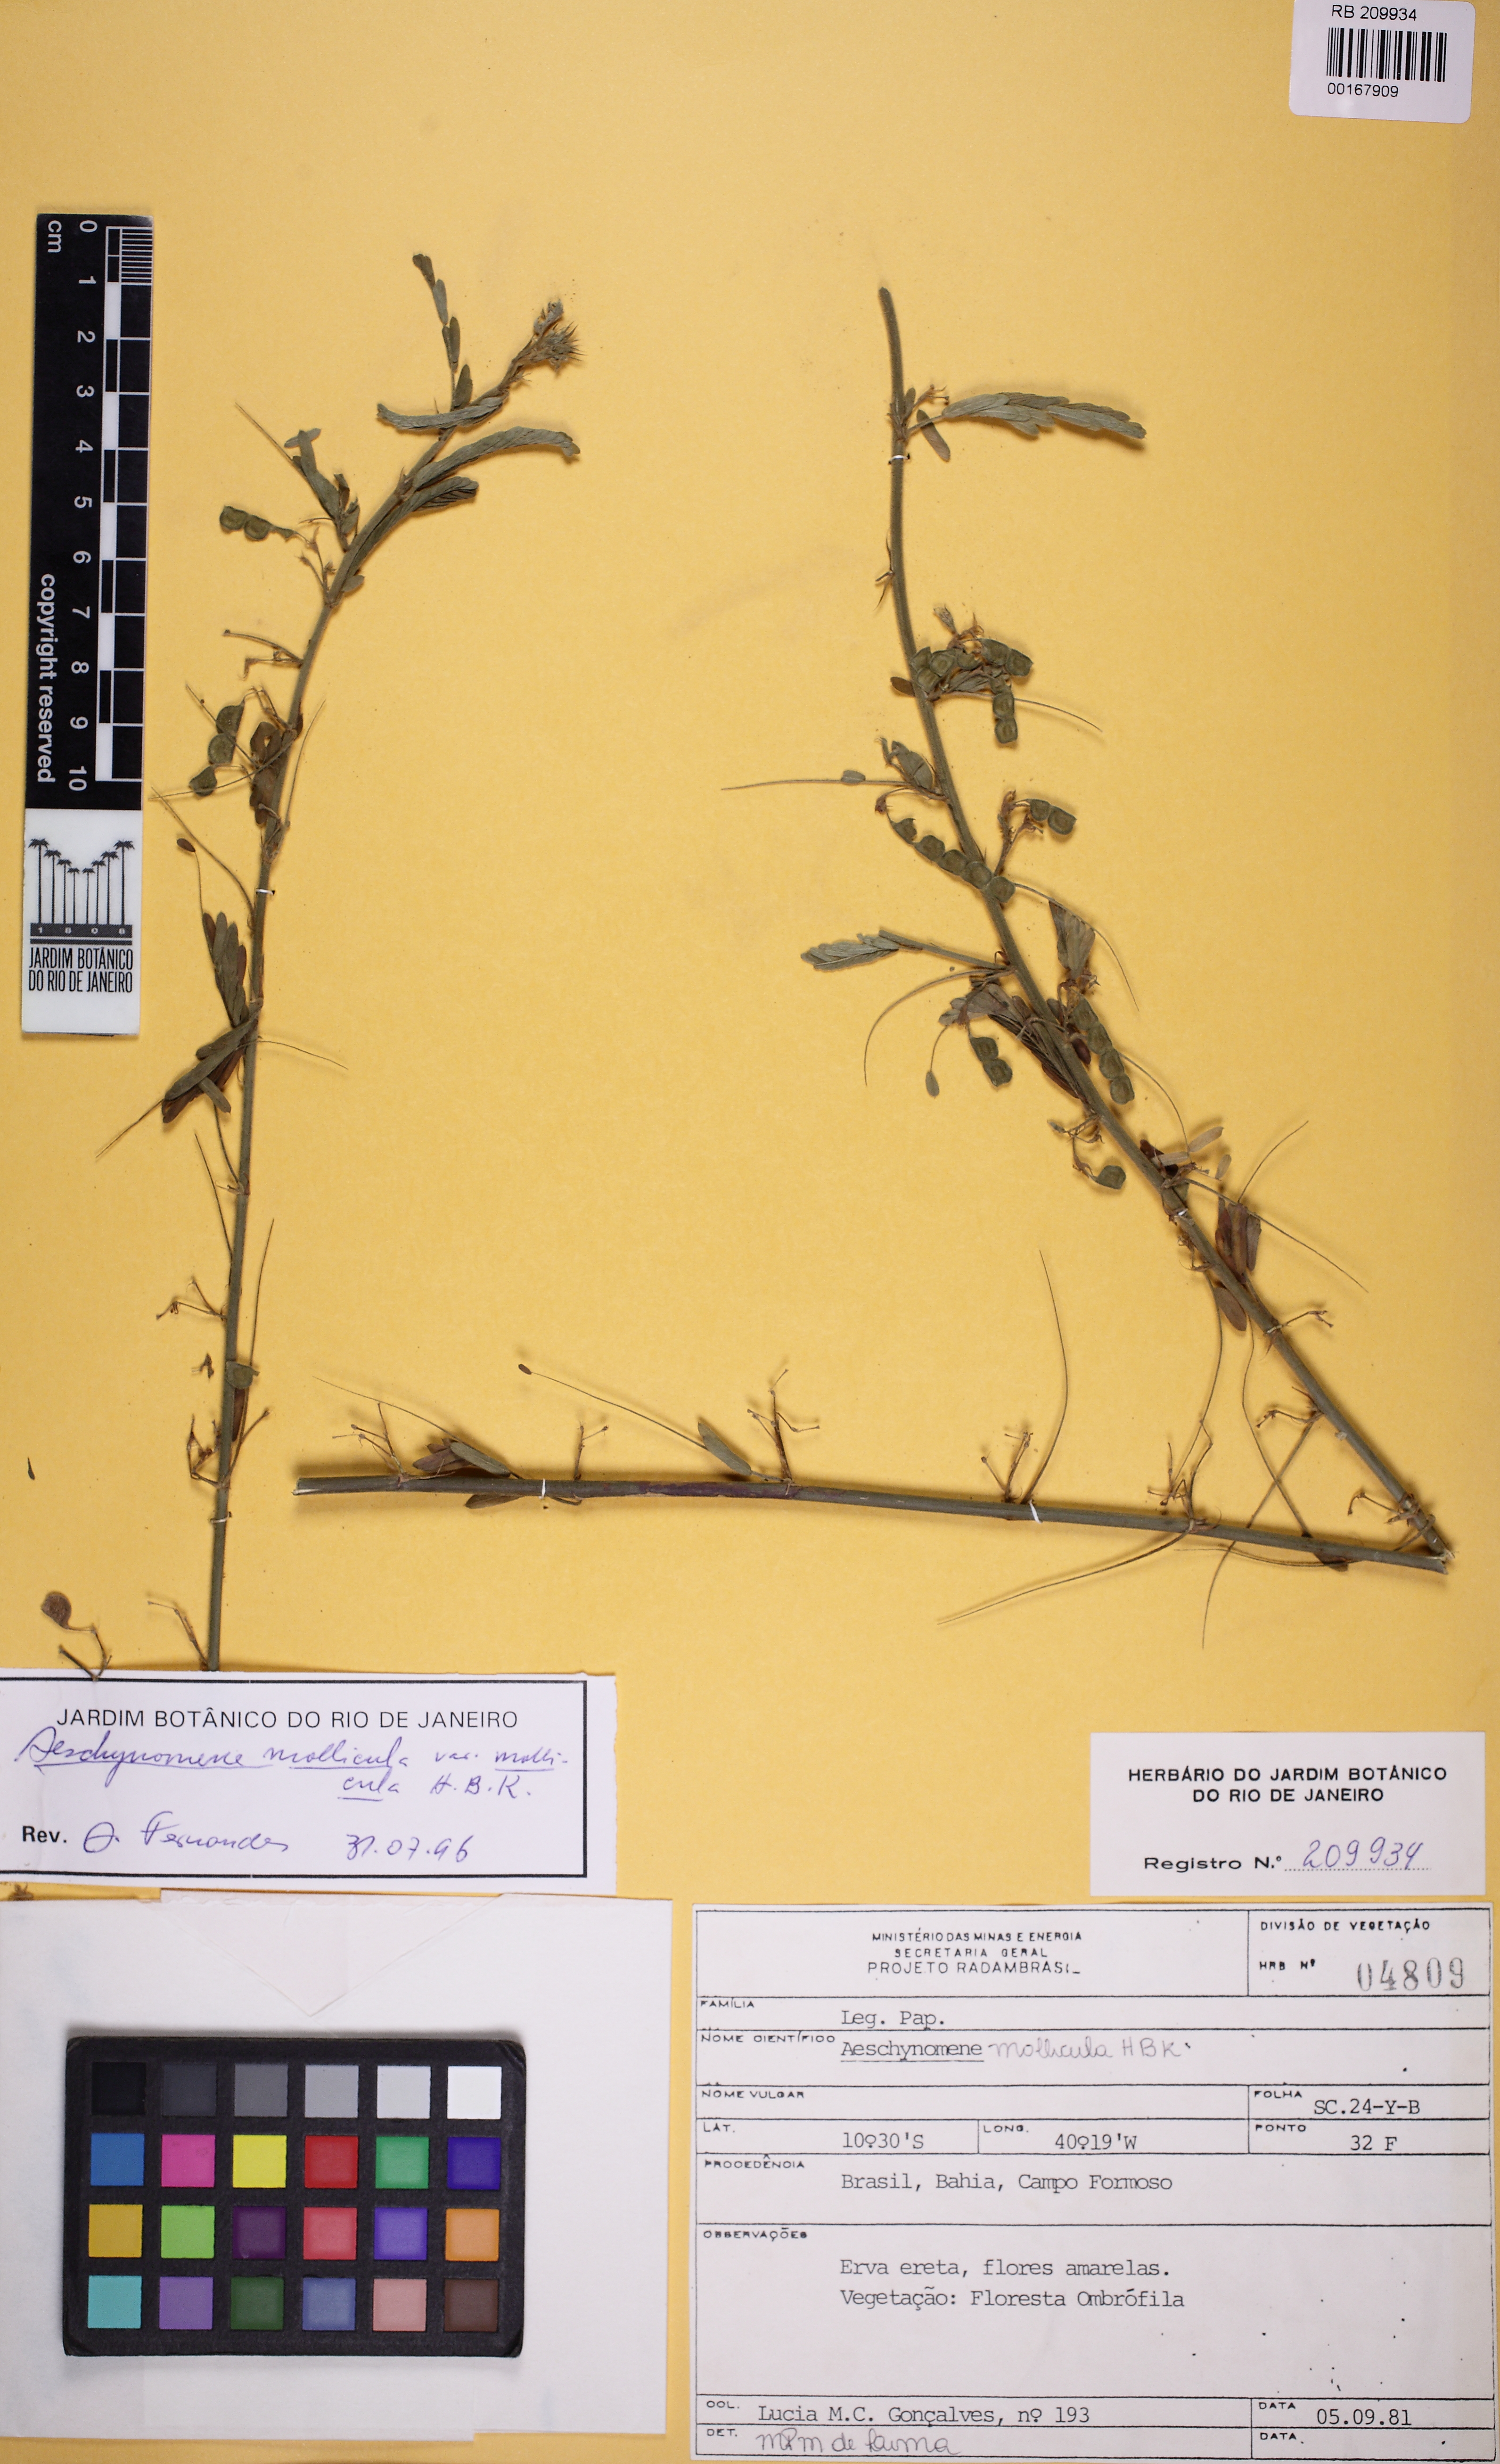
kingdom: Plantae
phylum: Tracheophyta
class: Magnoliopsida
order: Fabales
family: Fabaceae
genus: Ctenodon
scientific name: Ctenodon molliculus
